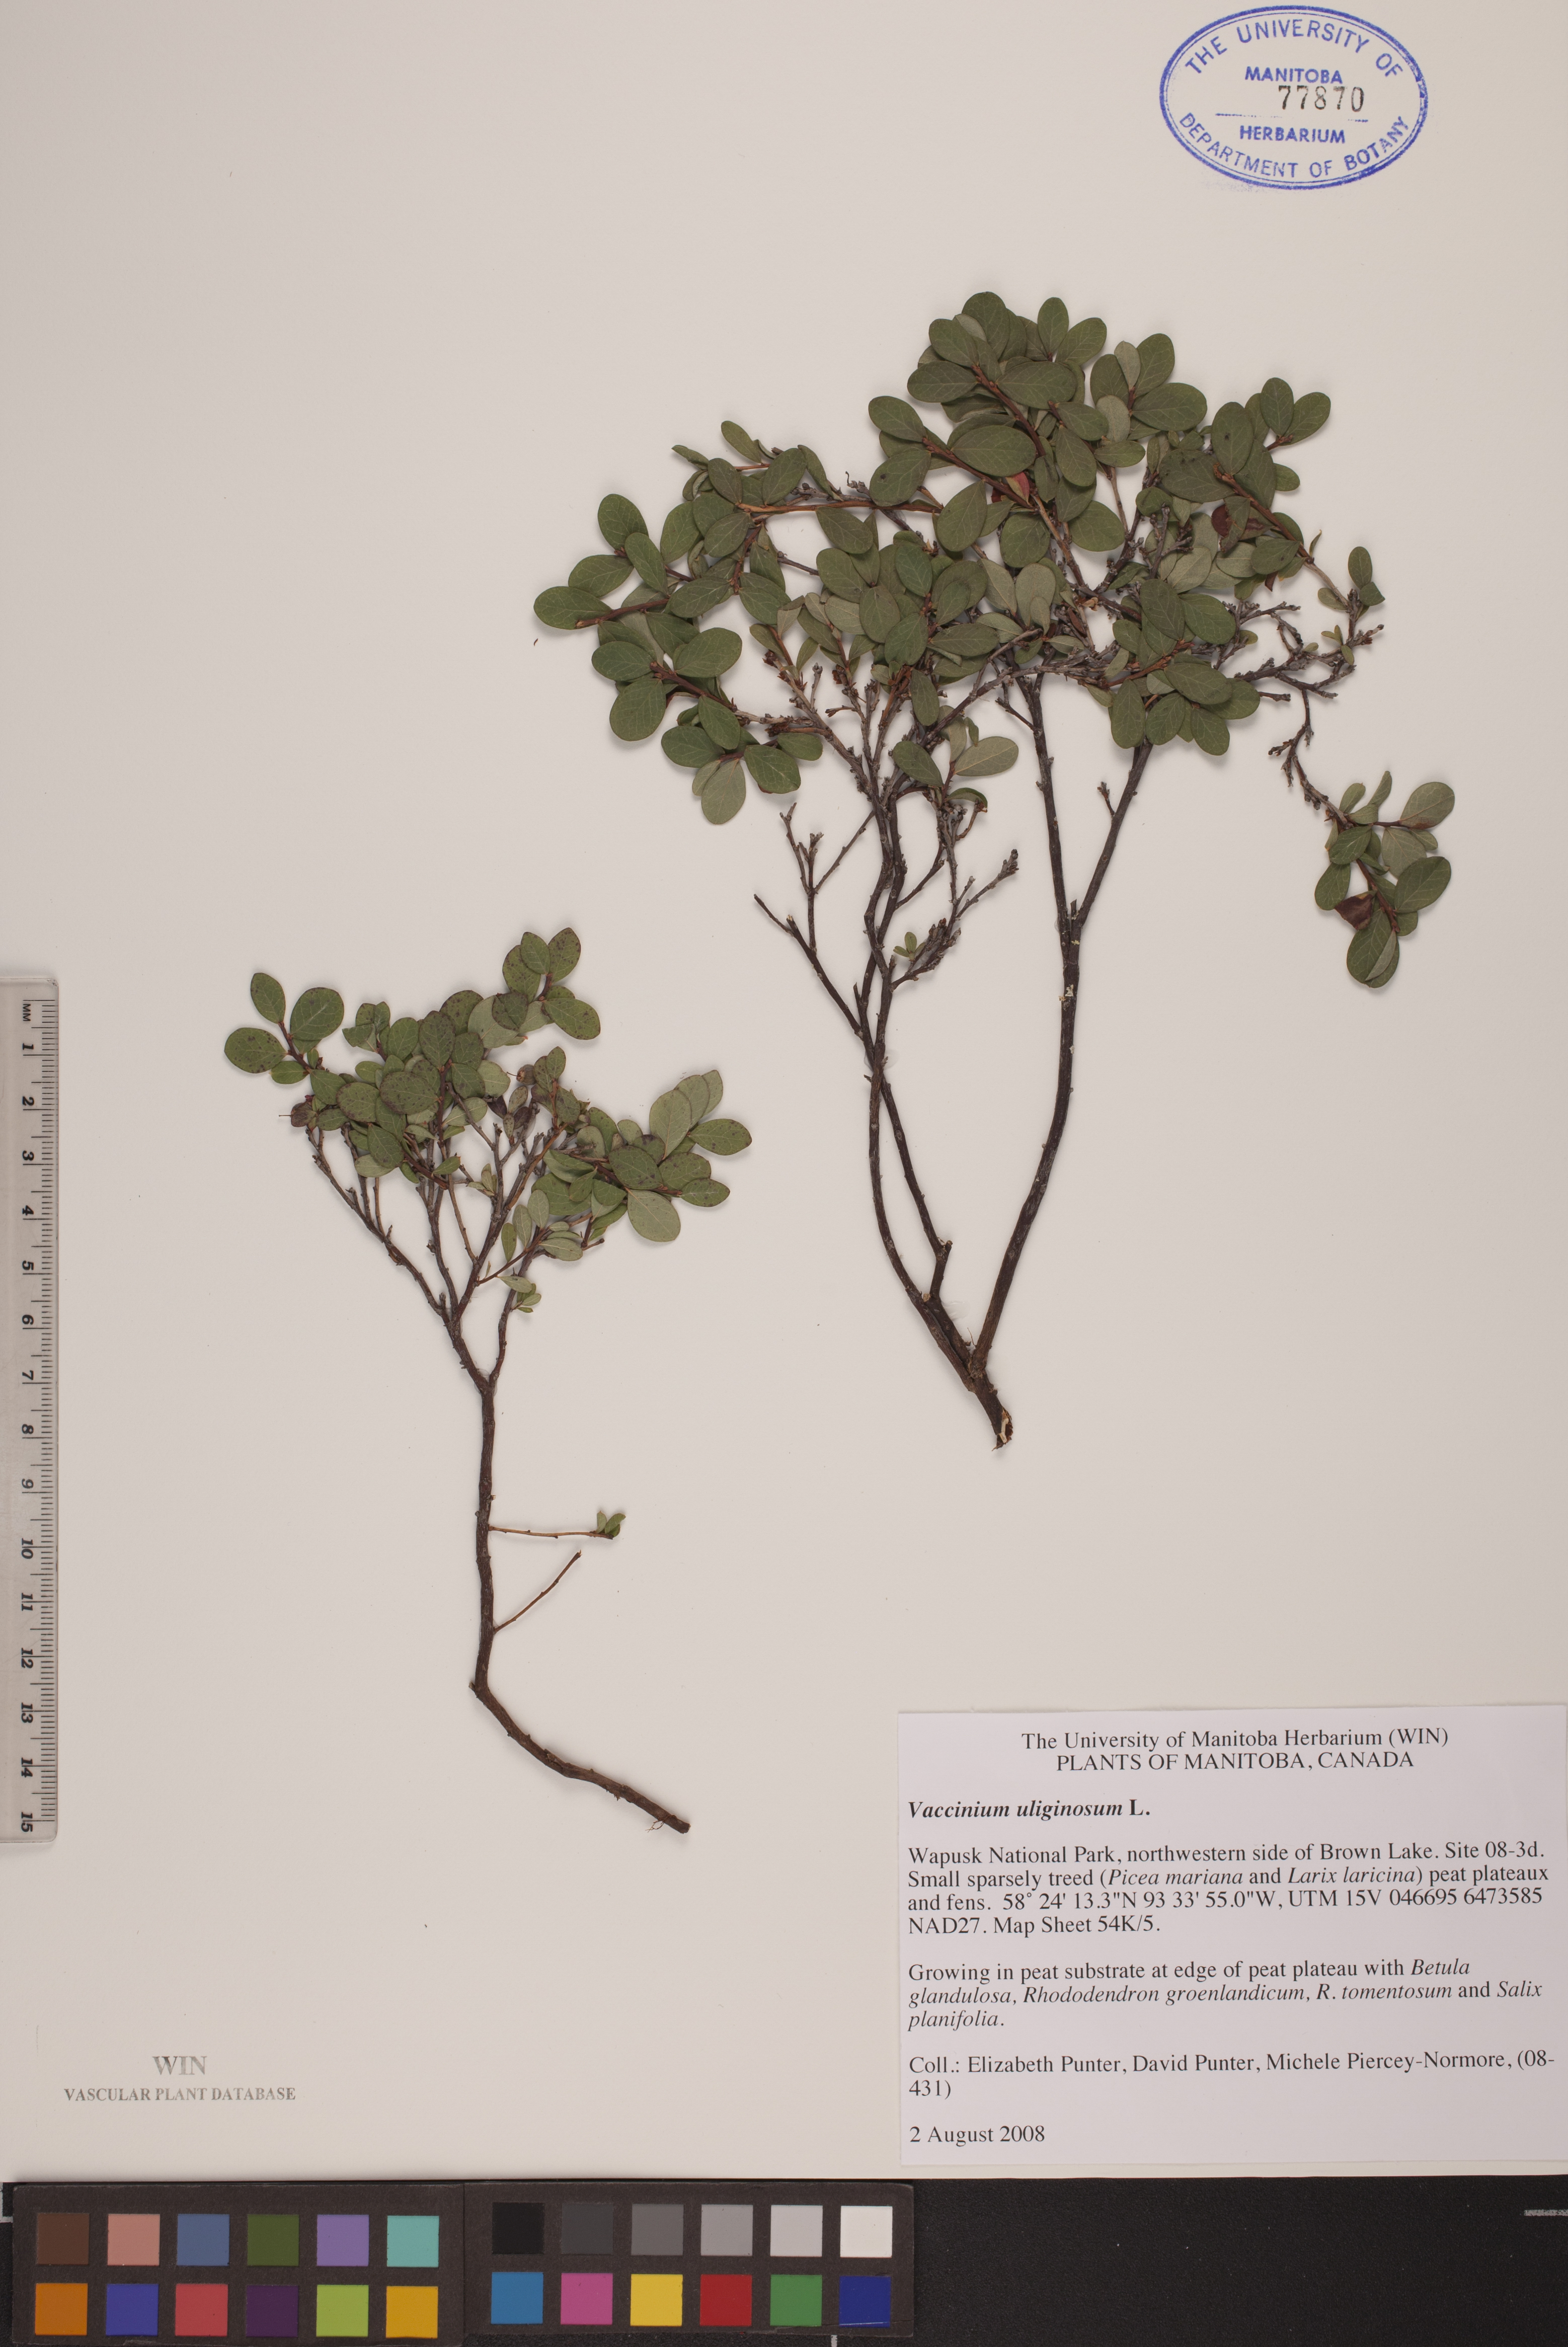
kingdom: Plantae
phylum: Tracheophyta
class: Magnoliopsida
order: Ericales
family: Ericaceae
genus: Vaccinium
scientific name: Vaccinium uliginosum
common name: Bog bilberry
